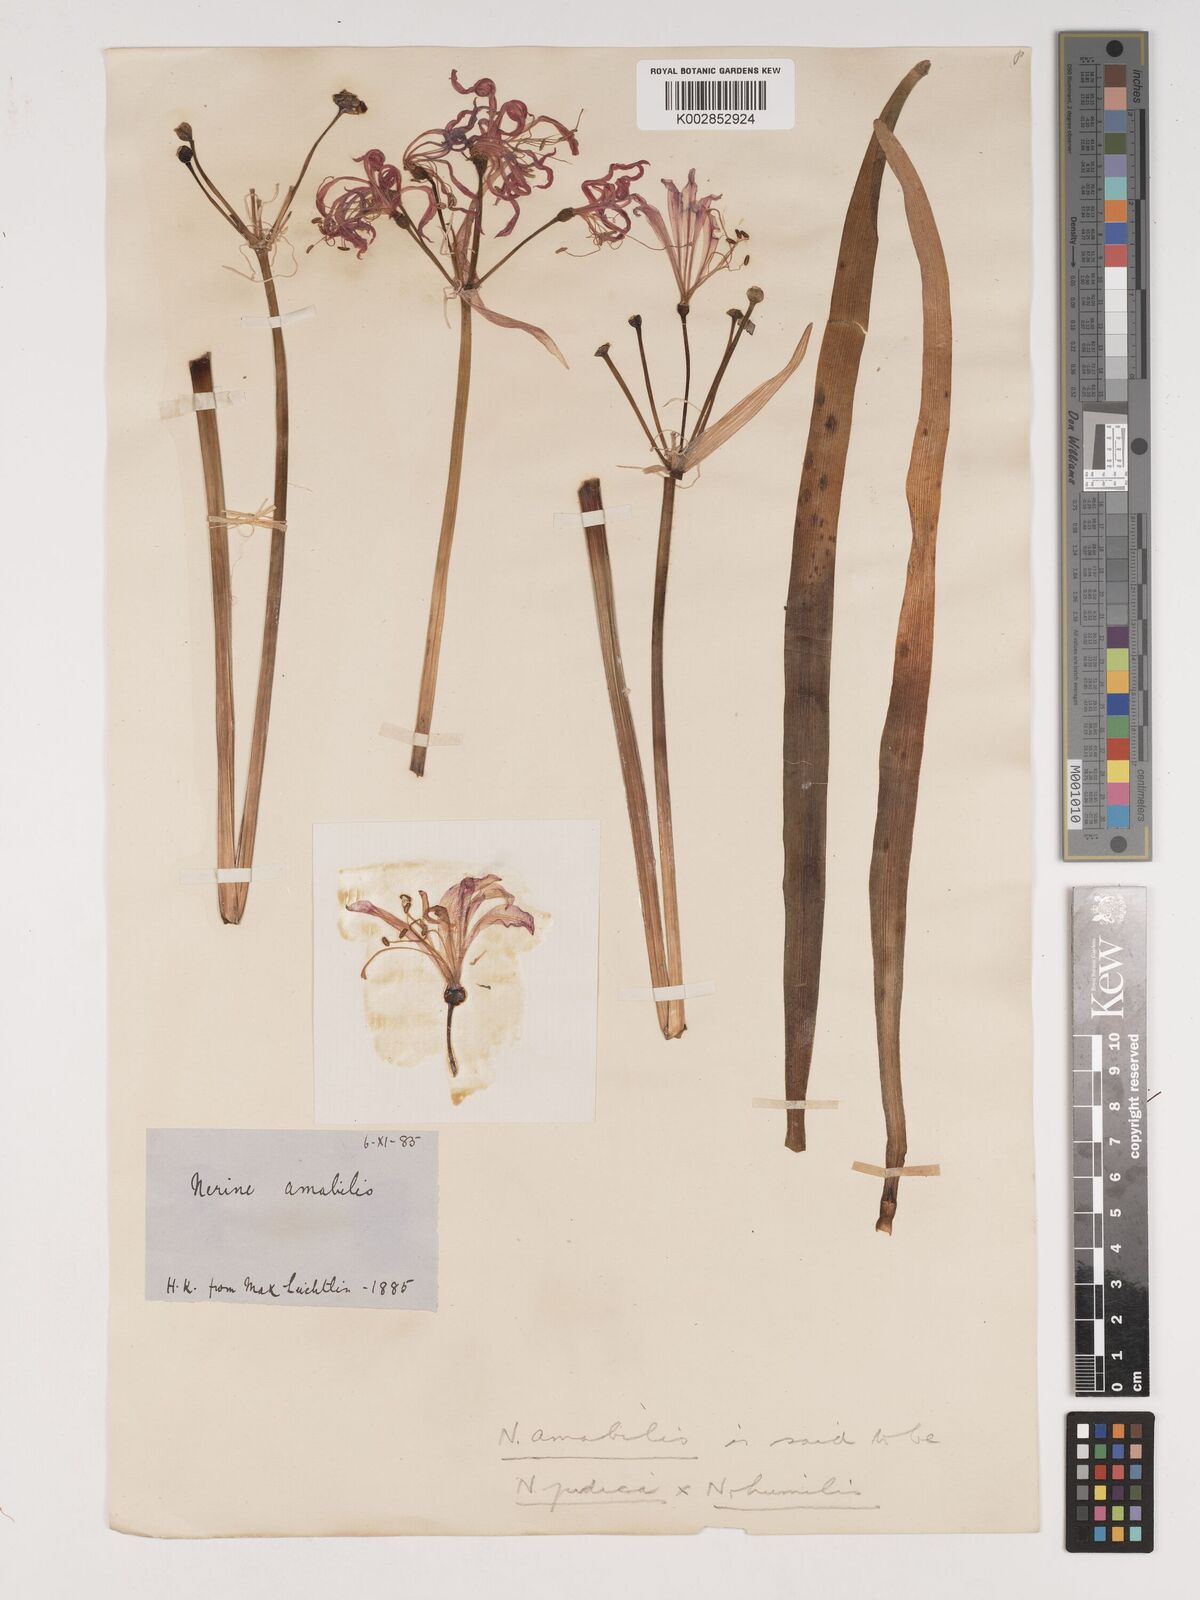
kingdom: Plantae
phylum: Tracheophyta
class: Liliopsida
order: Asparagales
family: Amaryllidaceae
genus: Nerine
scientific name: Nerine pudica
